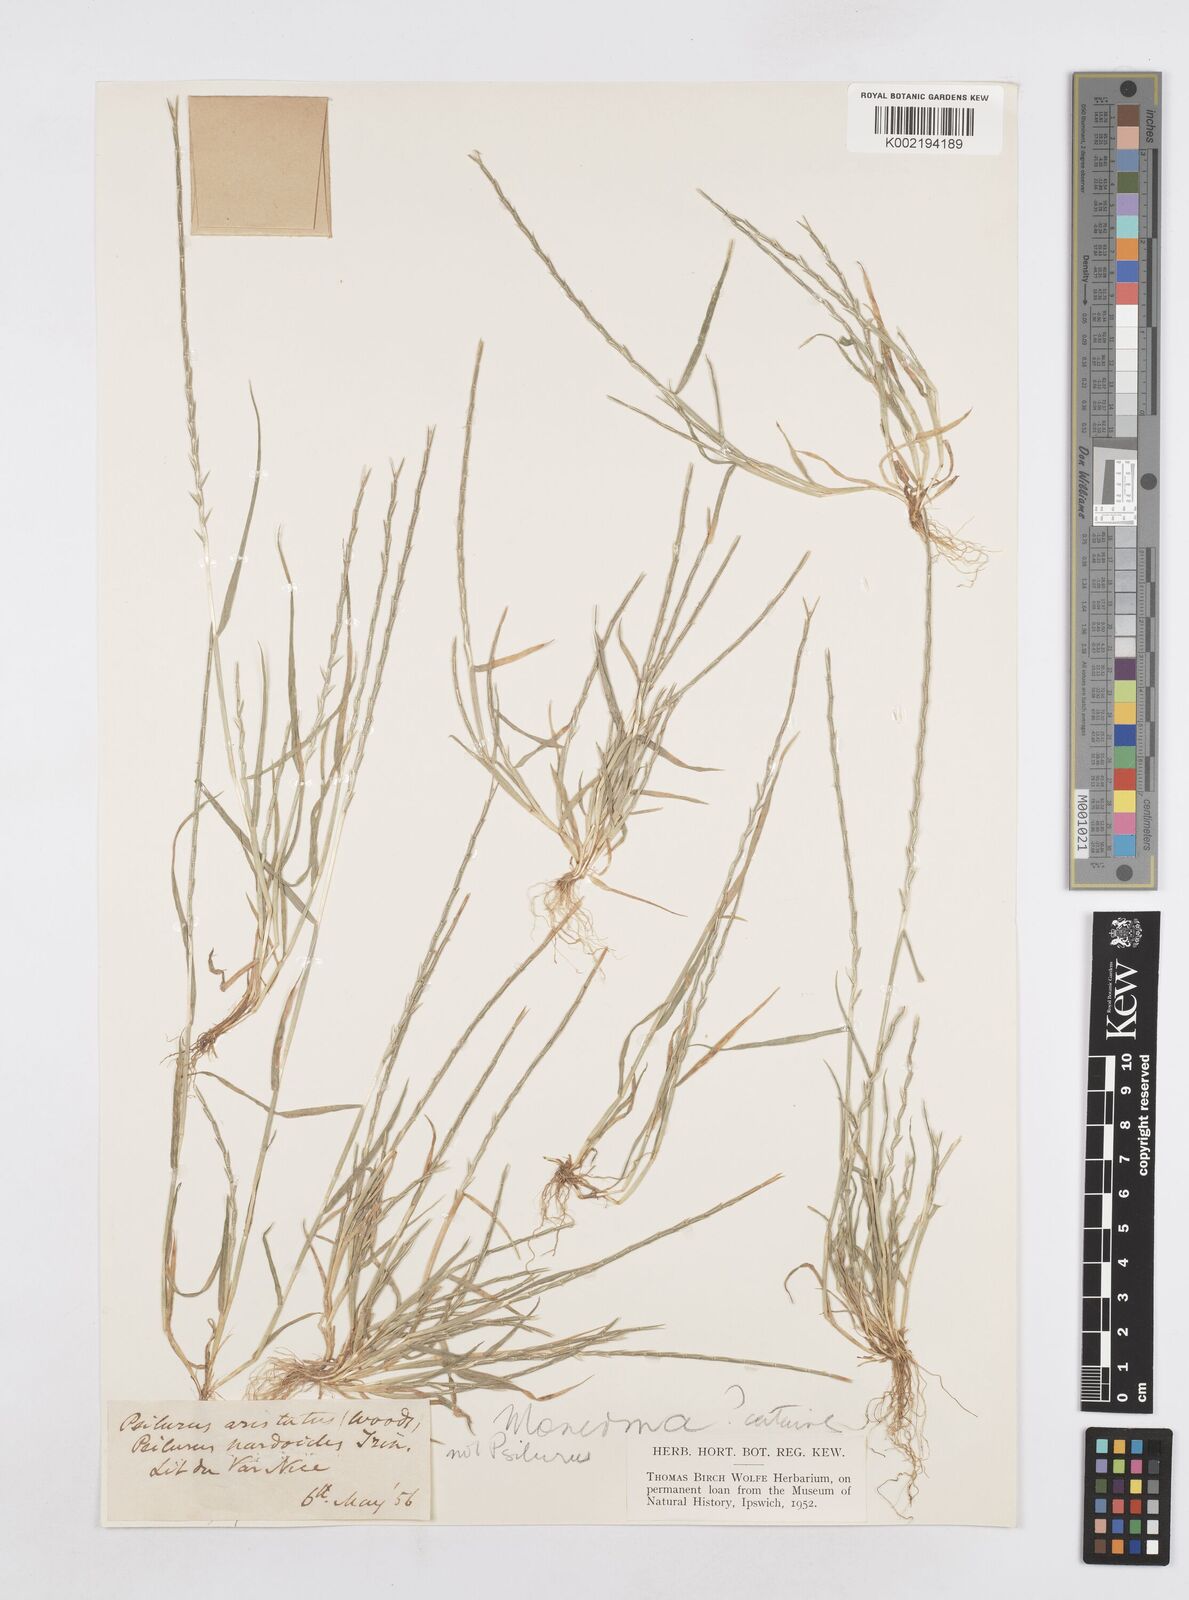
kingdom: Plantae
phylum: Tracheophyta
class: Liliopsida
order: Poales
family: Poaceae
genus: Parapholis
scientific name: Parapholis cylindrica
